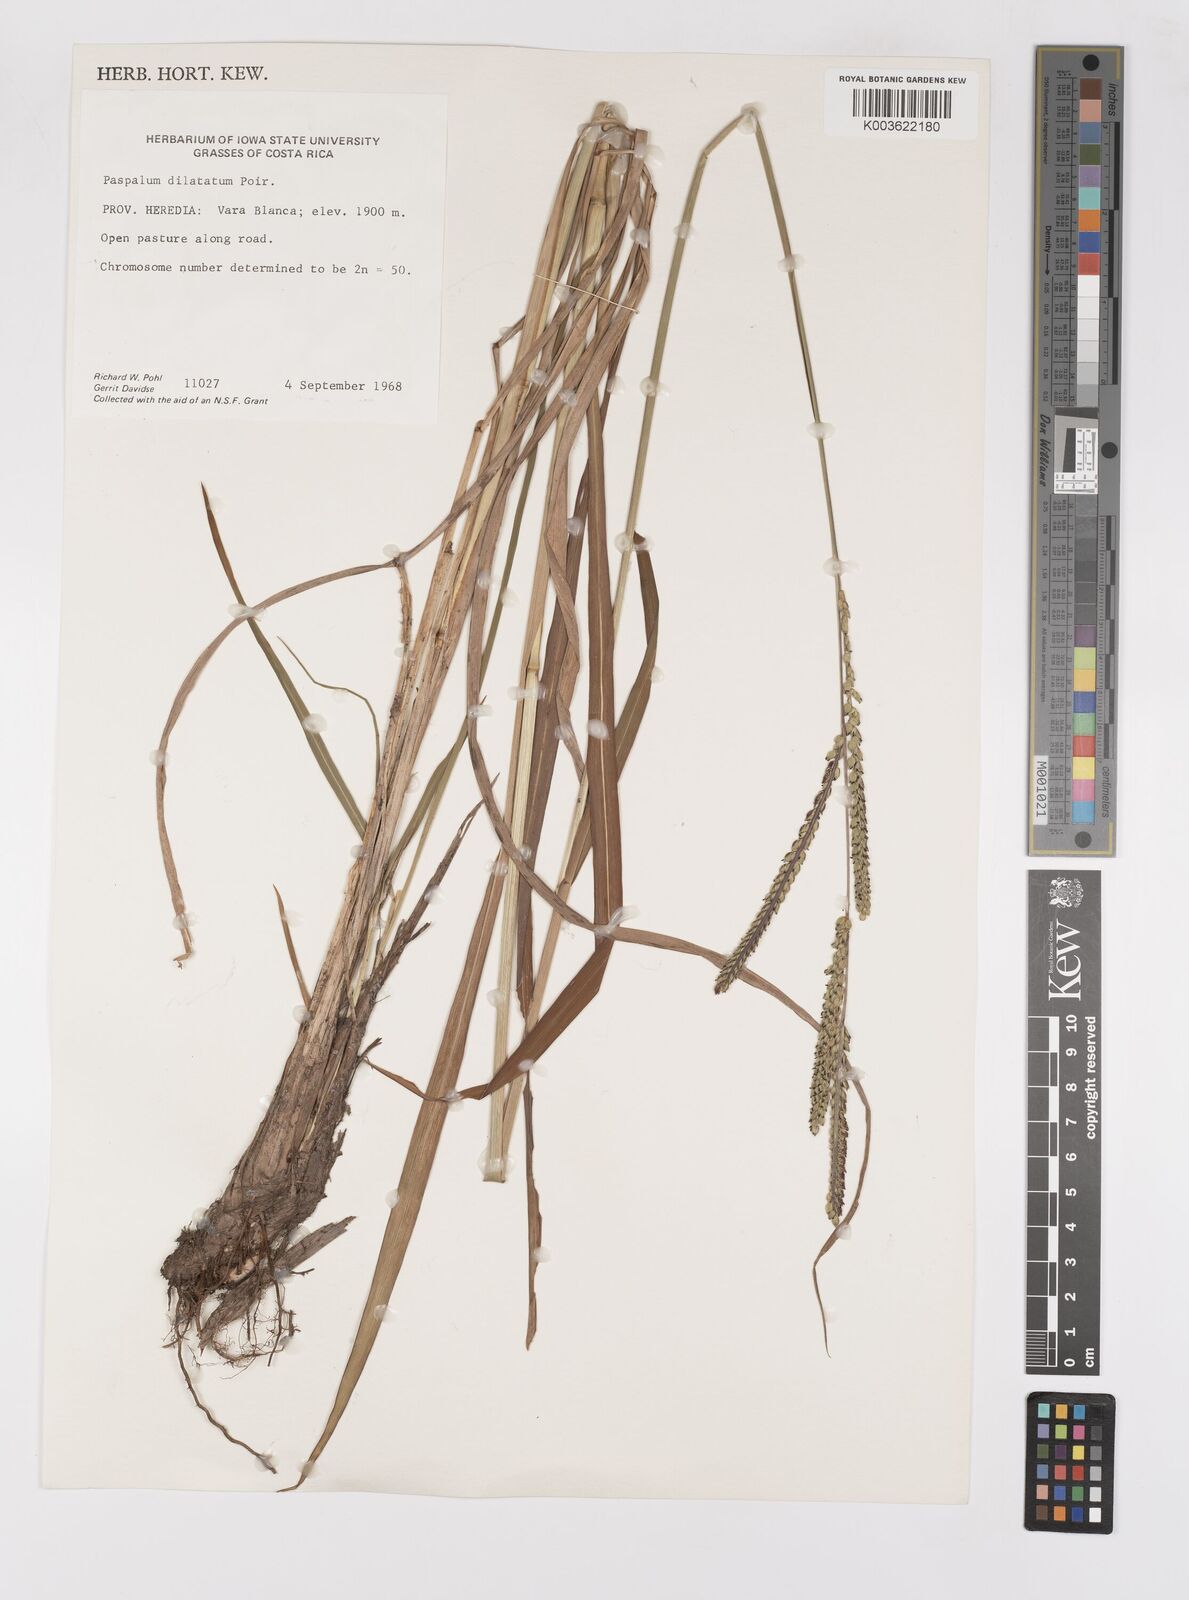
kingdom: Plantae
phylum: Tracheophyta
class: Liliopsida
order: Poales
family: Poaceae
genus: Paspalum
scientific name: Paspalum dilatatum
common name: Dallisgrass
